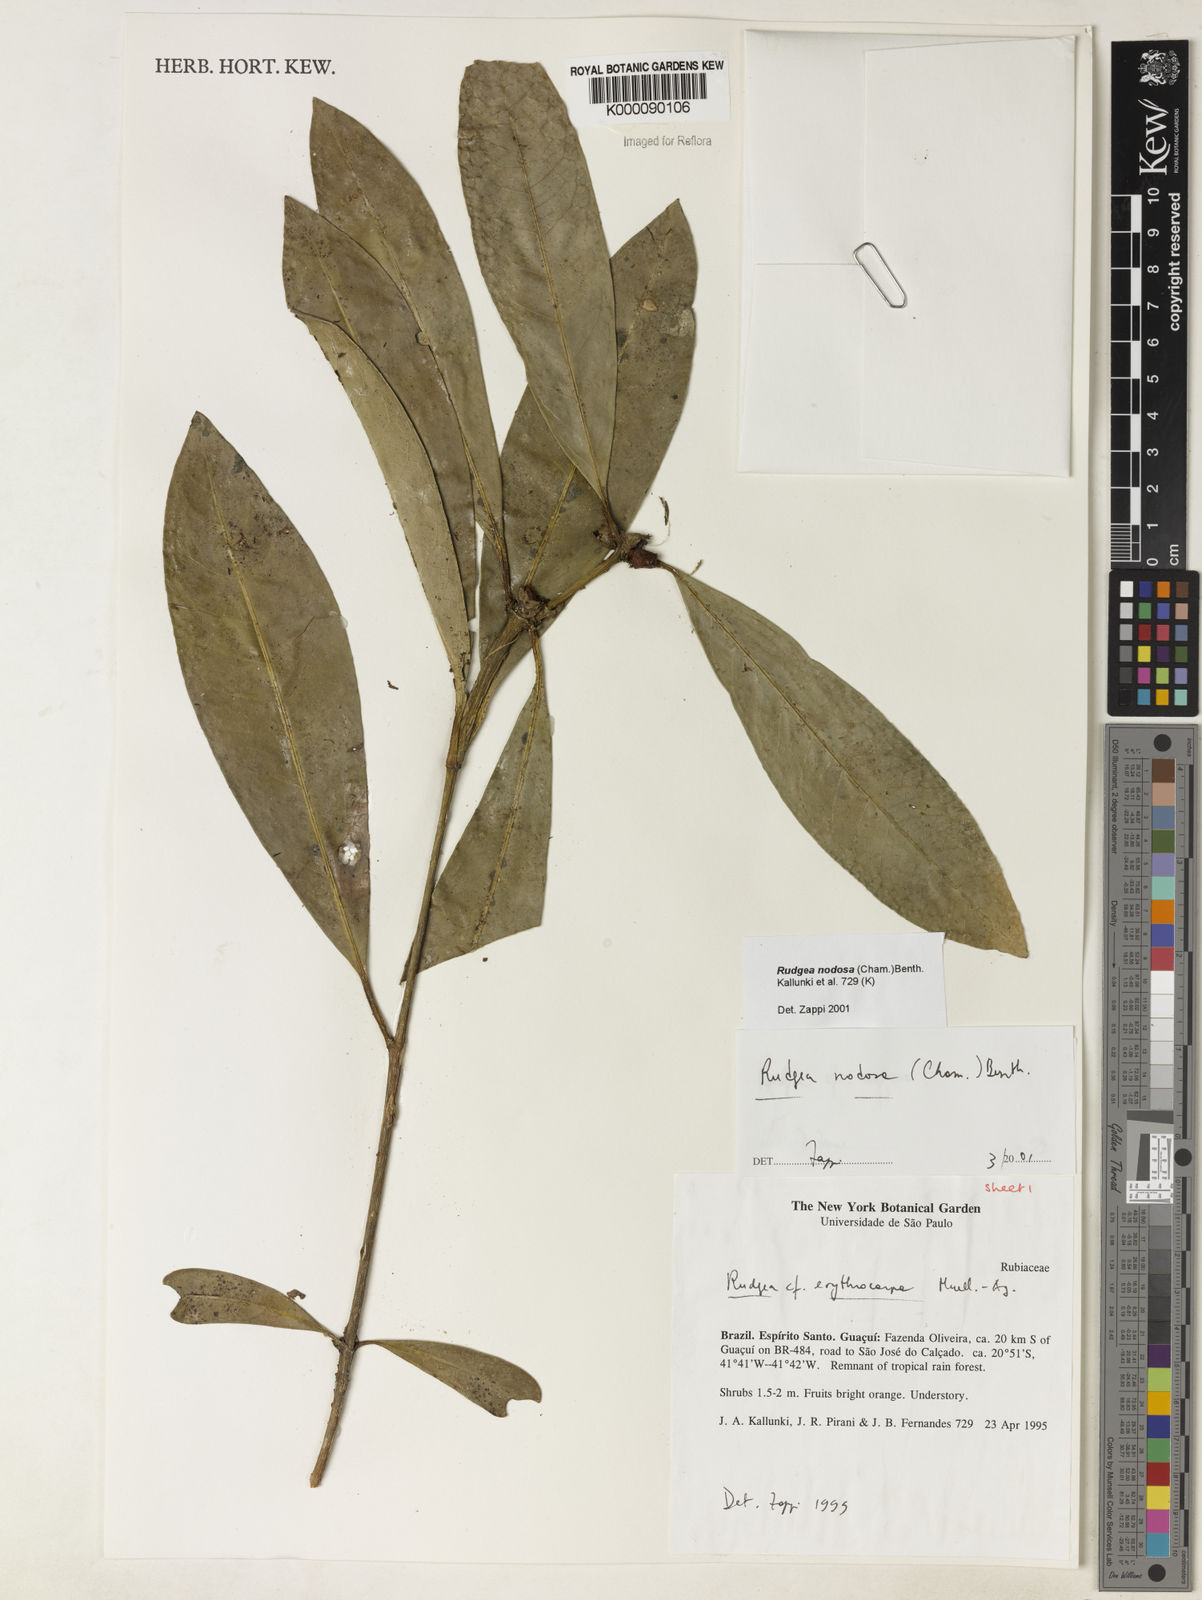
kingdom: Plantae
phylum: Tracheophyta
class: Magnoliopsida
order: Gentianales
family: Rubiaceae
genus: Rudgea
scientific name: Rudgea nodosa
